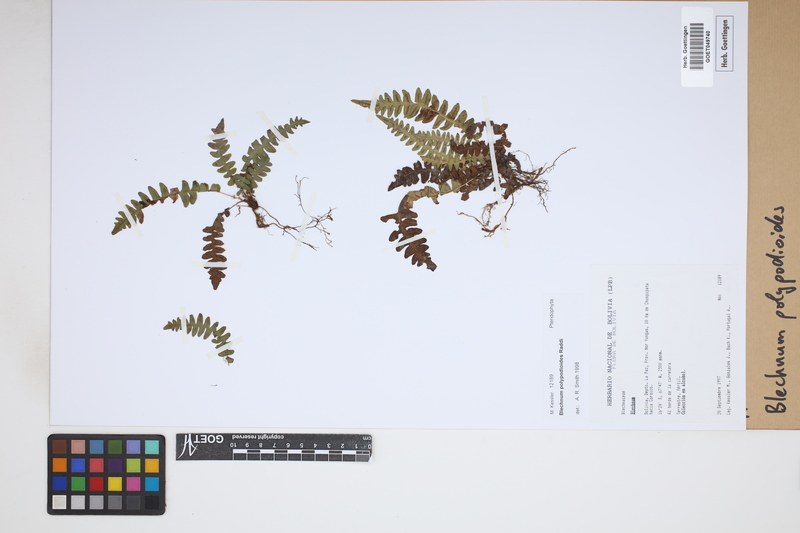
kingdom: Plantae
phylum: Tracheophyta
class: Polypodiopsida
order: Polypodiales
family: Blechnaceae
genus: Blechnum
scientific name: Blechnum polypodioides
